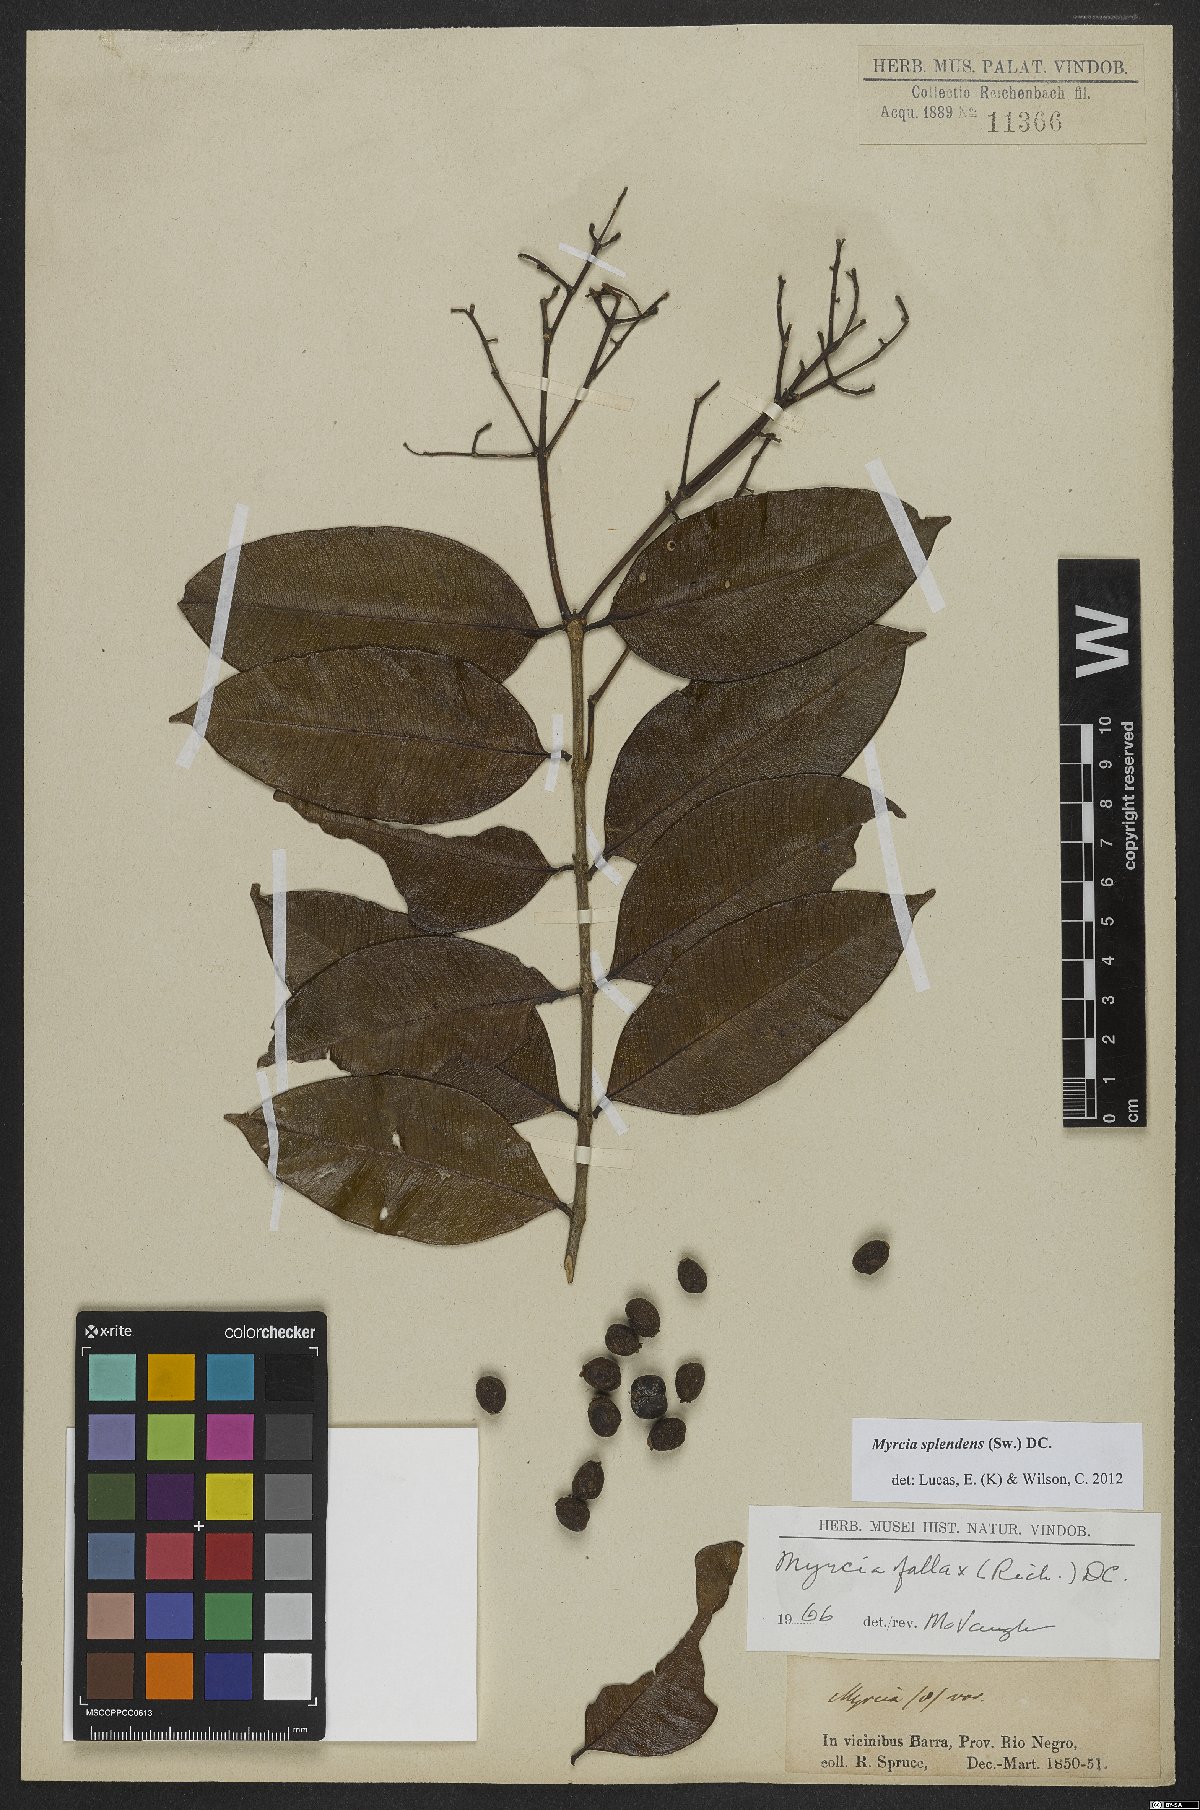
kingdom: Plantae
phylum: Tracheophyta
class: Magnoliopsida
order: Myrtales
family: Myrtaceae
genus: Myrcia
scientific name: Myrcia splendens
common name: Surinam cherry
